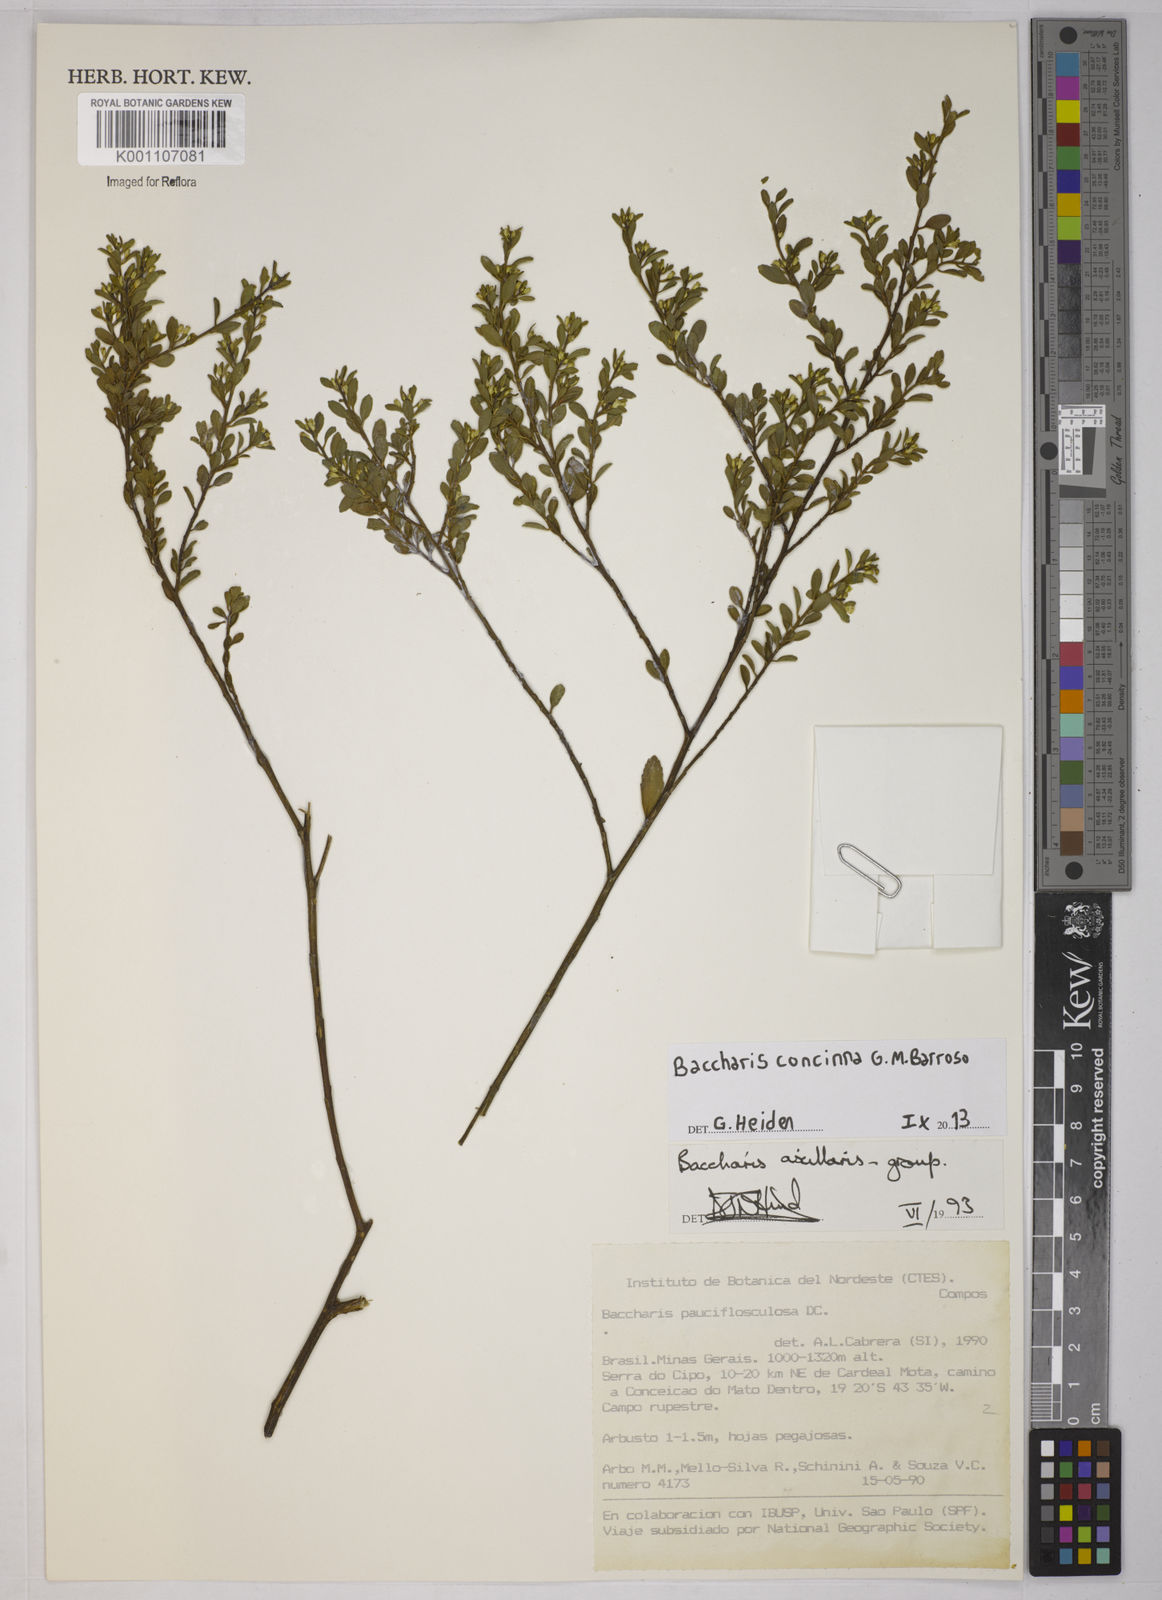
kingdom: Plantae
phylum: Tracheophyta
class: Magnoliopsida
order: Asterales
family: Asteraceae
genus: Baccharis
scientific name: Baccharis concinna
